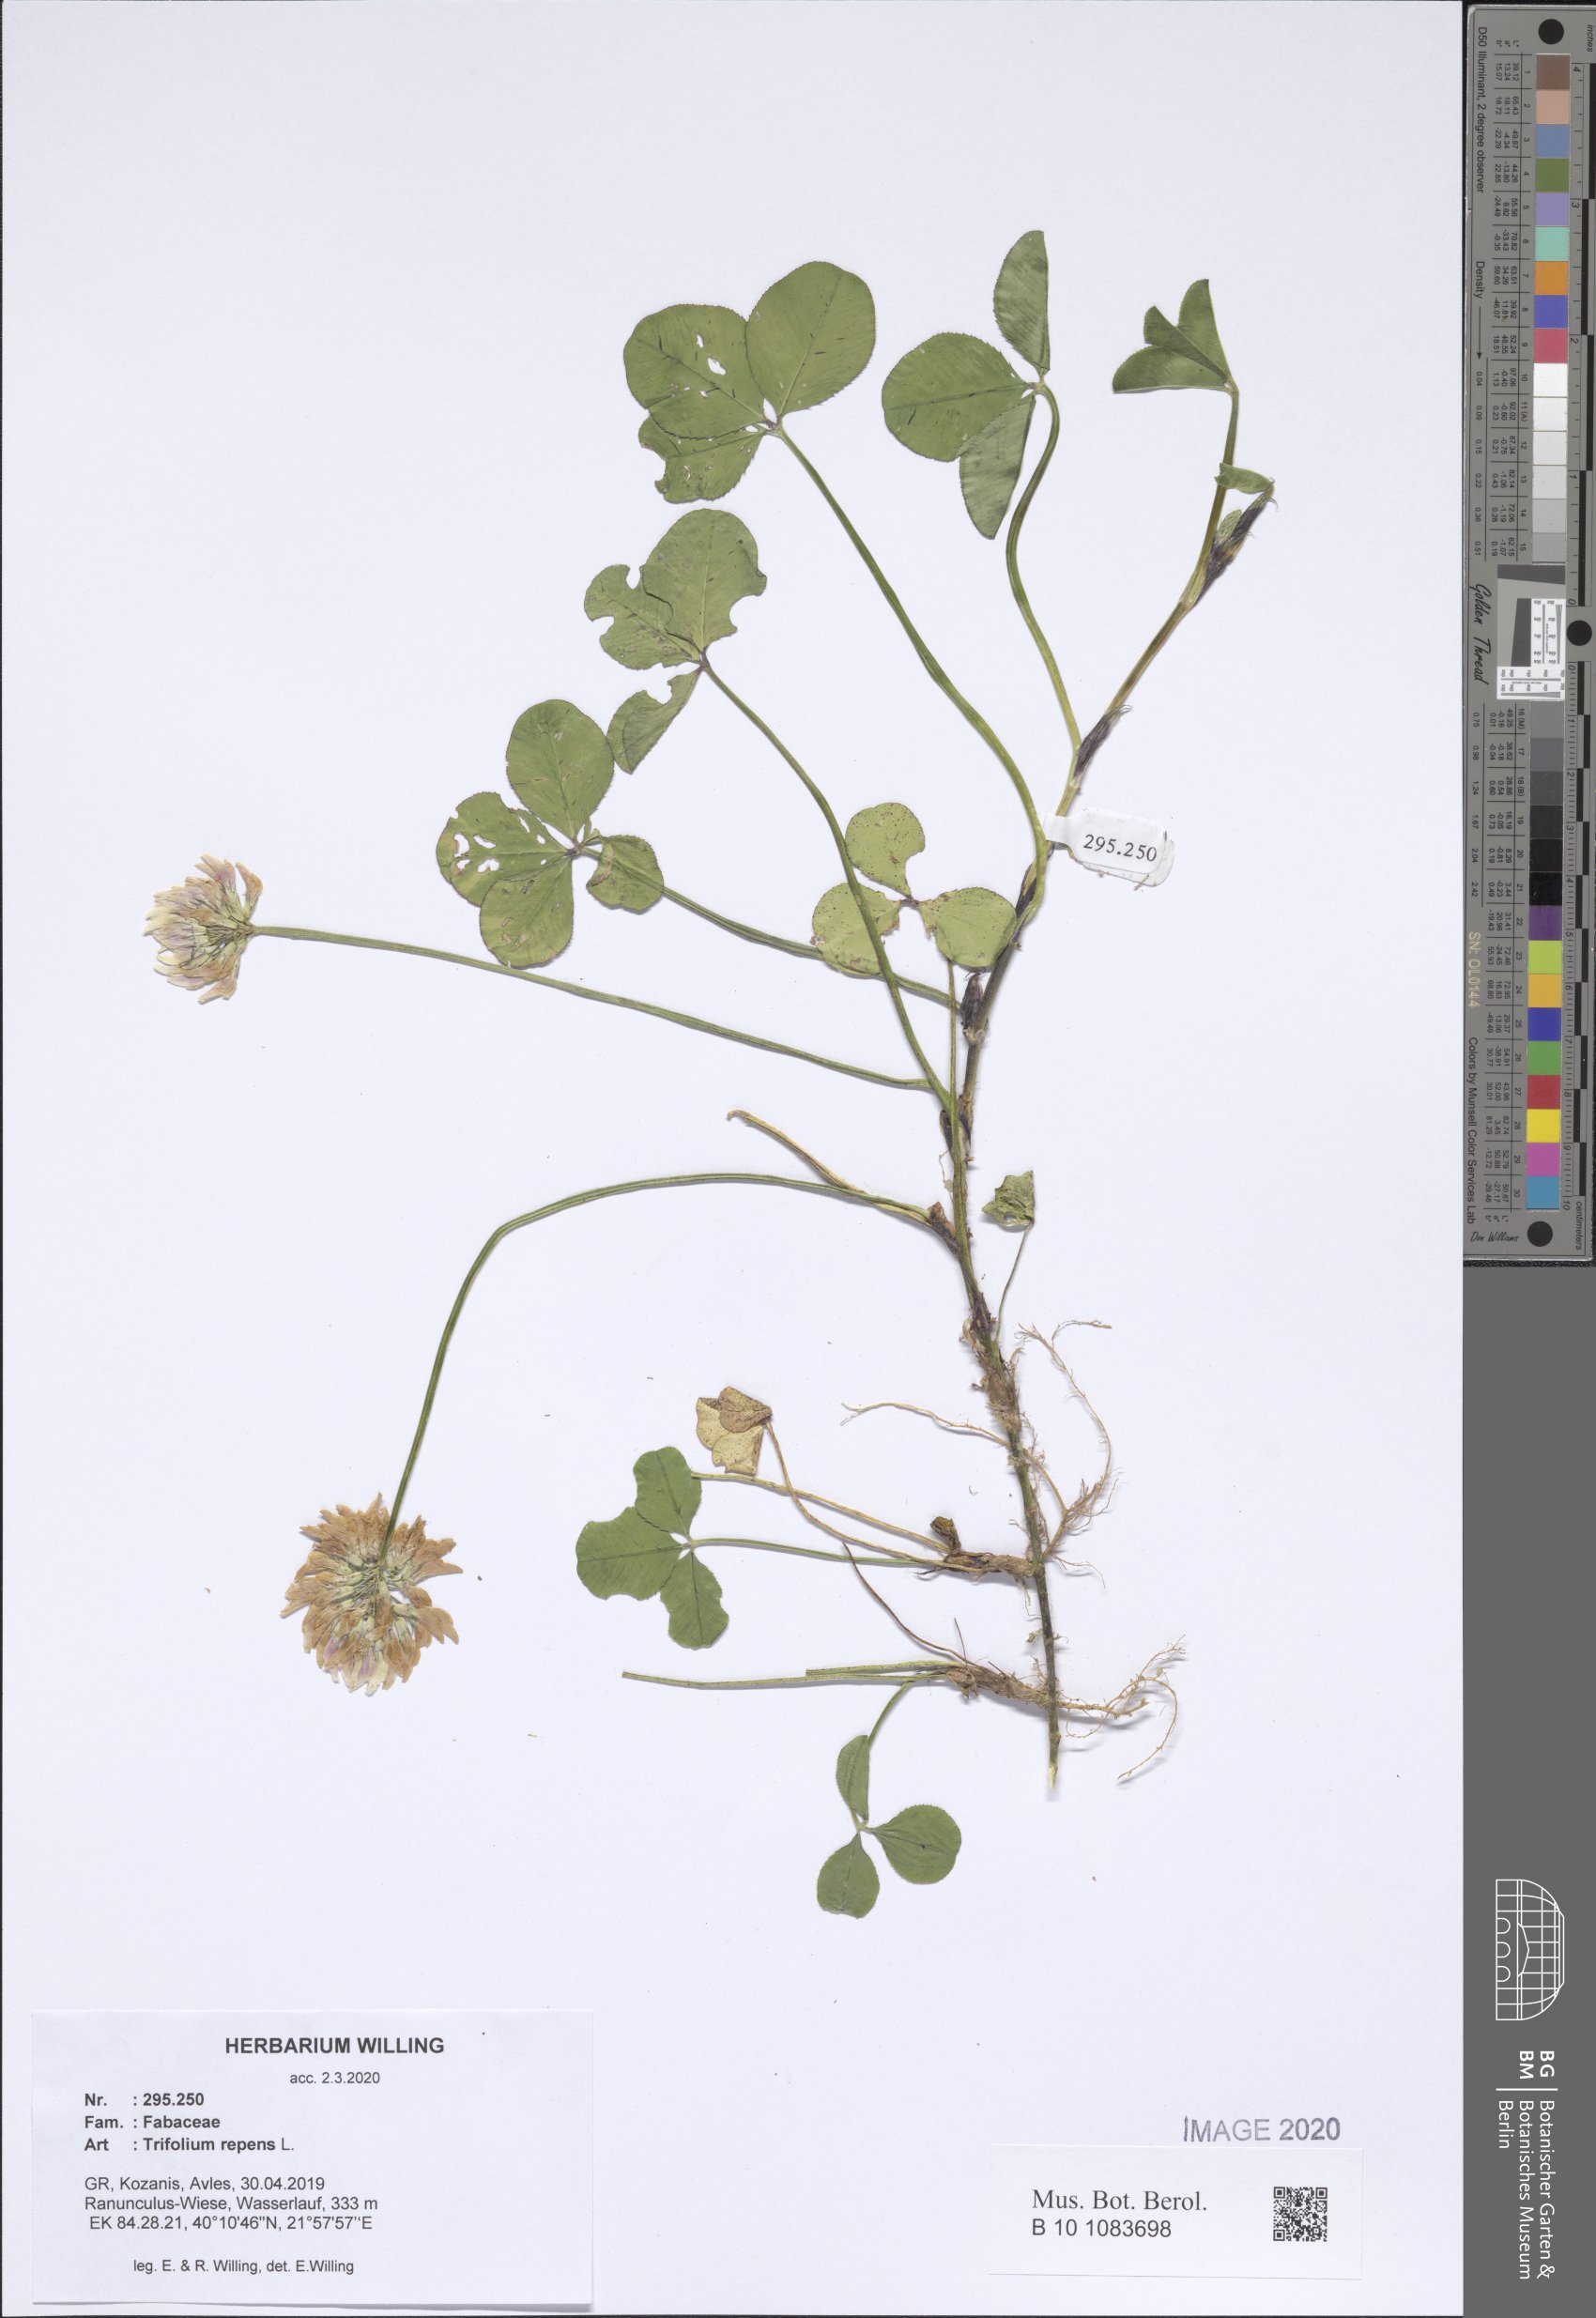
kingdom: Plantae
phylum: Tracheophyta
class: Magnoliopsida
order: Fabales
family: Fabaceae
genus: Trifolium
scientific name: Trifolium repens
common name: White clover
